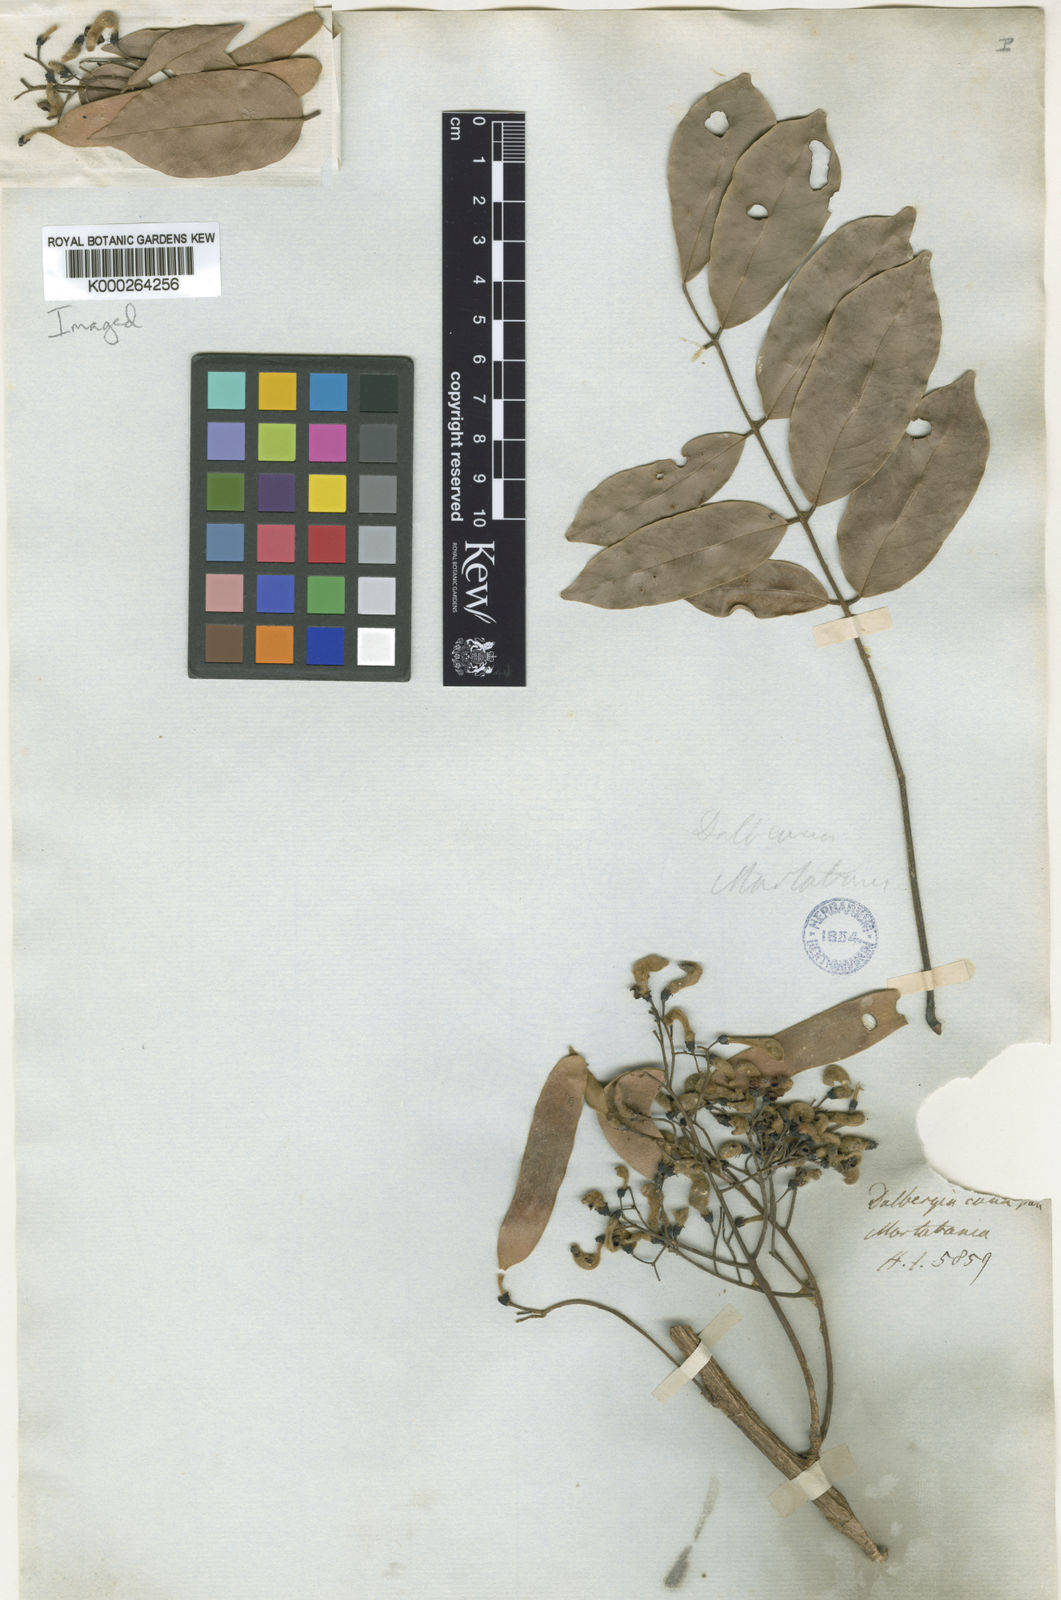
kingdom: Plantae
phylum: Tracheophyta
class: Magnoliopsida
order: Fabales
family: Fabaceae
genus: Dalbergia
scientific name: Dalbergia
